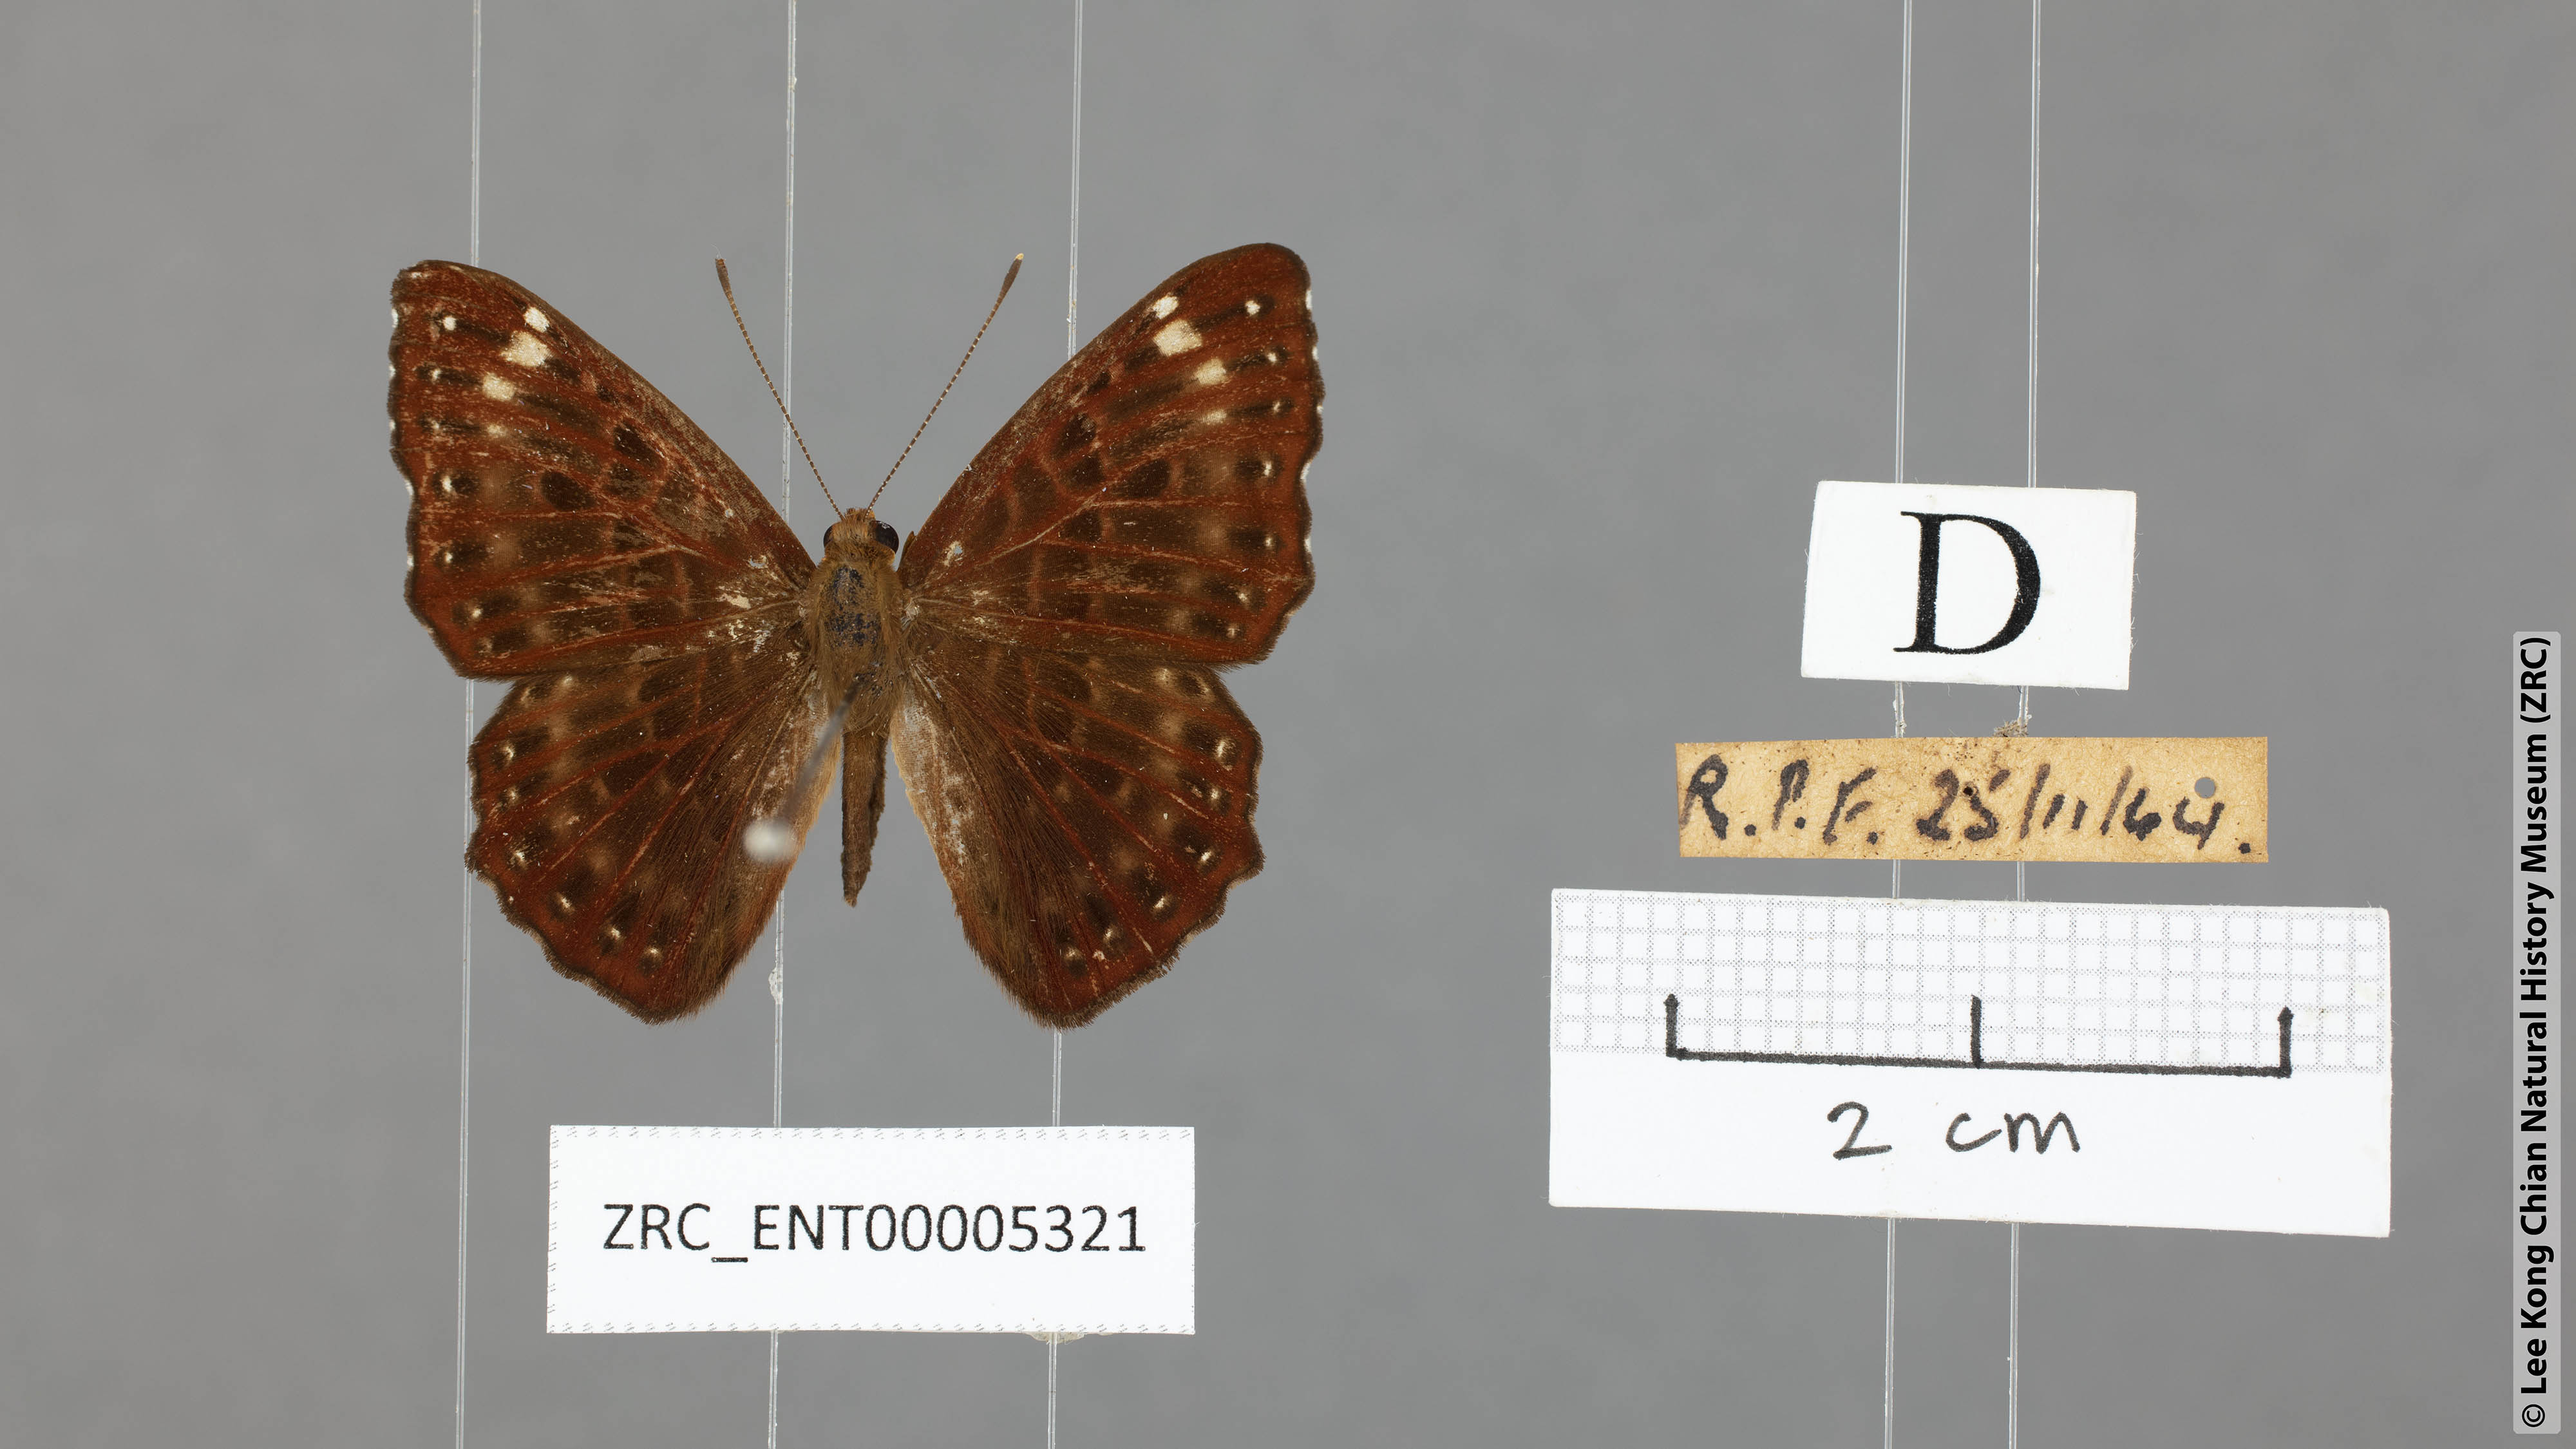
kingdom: Animalia
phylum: Arthropoda
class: Insecta
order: Lepidoptera
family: Riodinidae
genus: Zemeros
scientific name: Zemeros flegyas
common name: Punchinello
